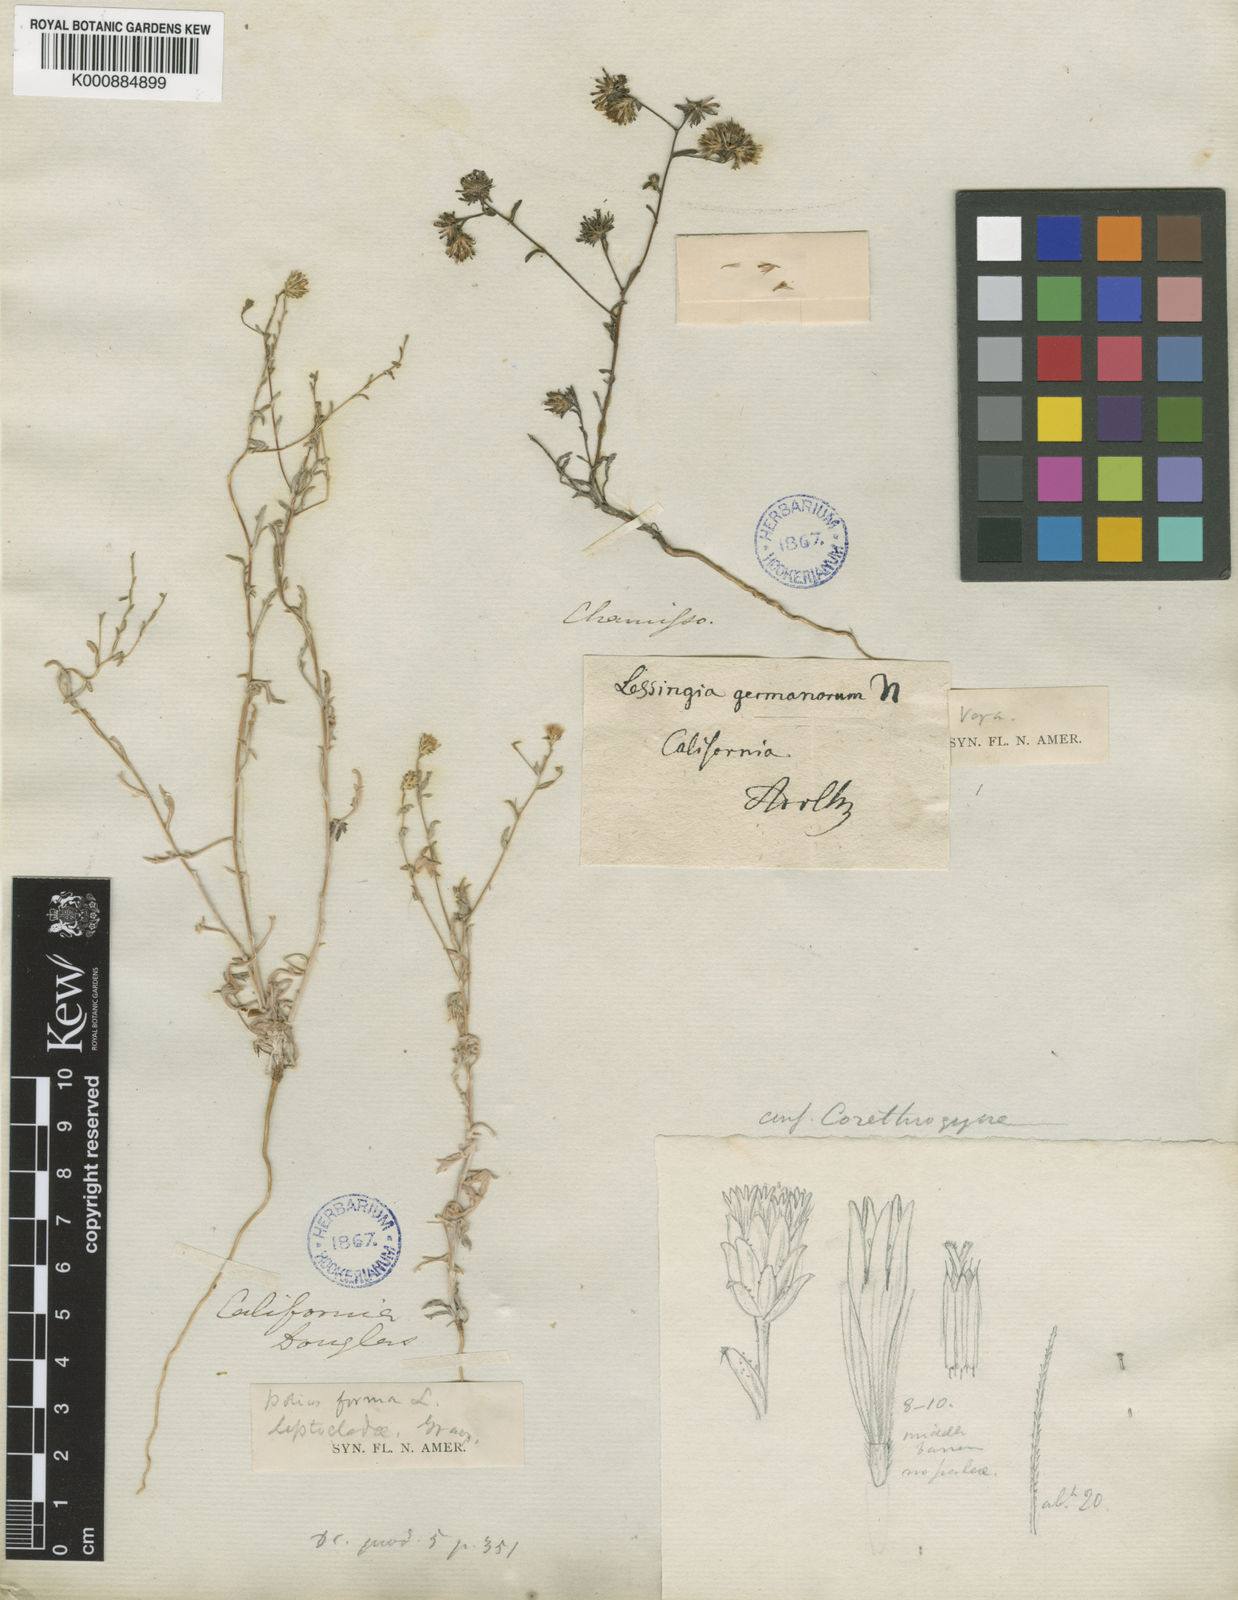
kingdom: Plantae
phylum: Tracheophyta
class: Magnoliopsida
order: Asterales
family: Asteraceae
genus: Lessingia
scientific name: Lessingia germanorum
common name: San francisco lessingia
